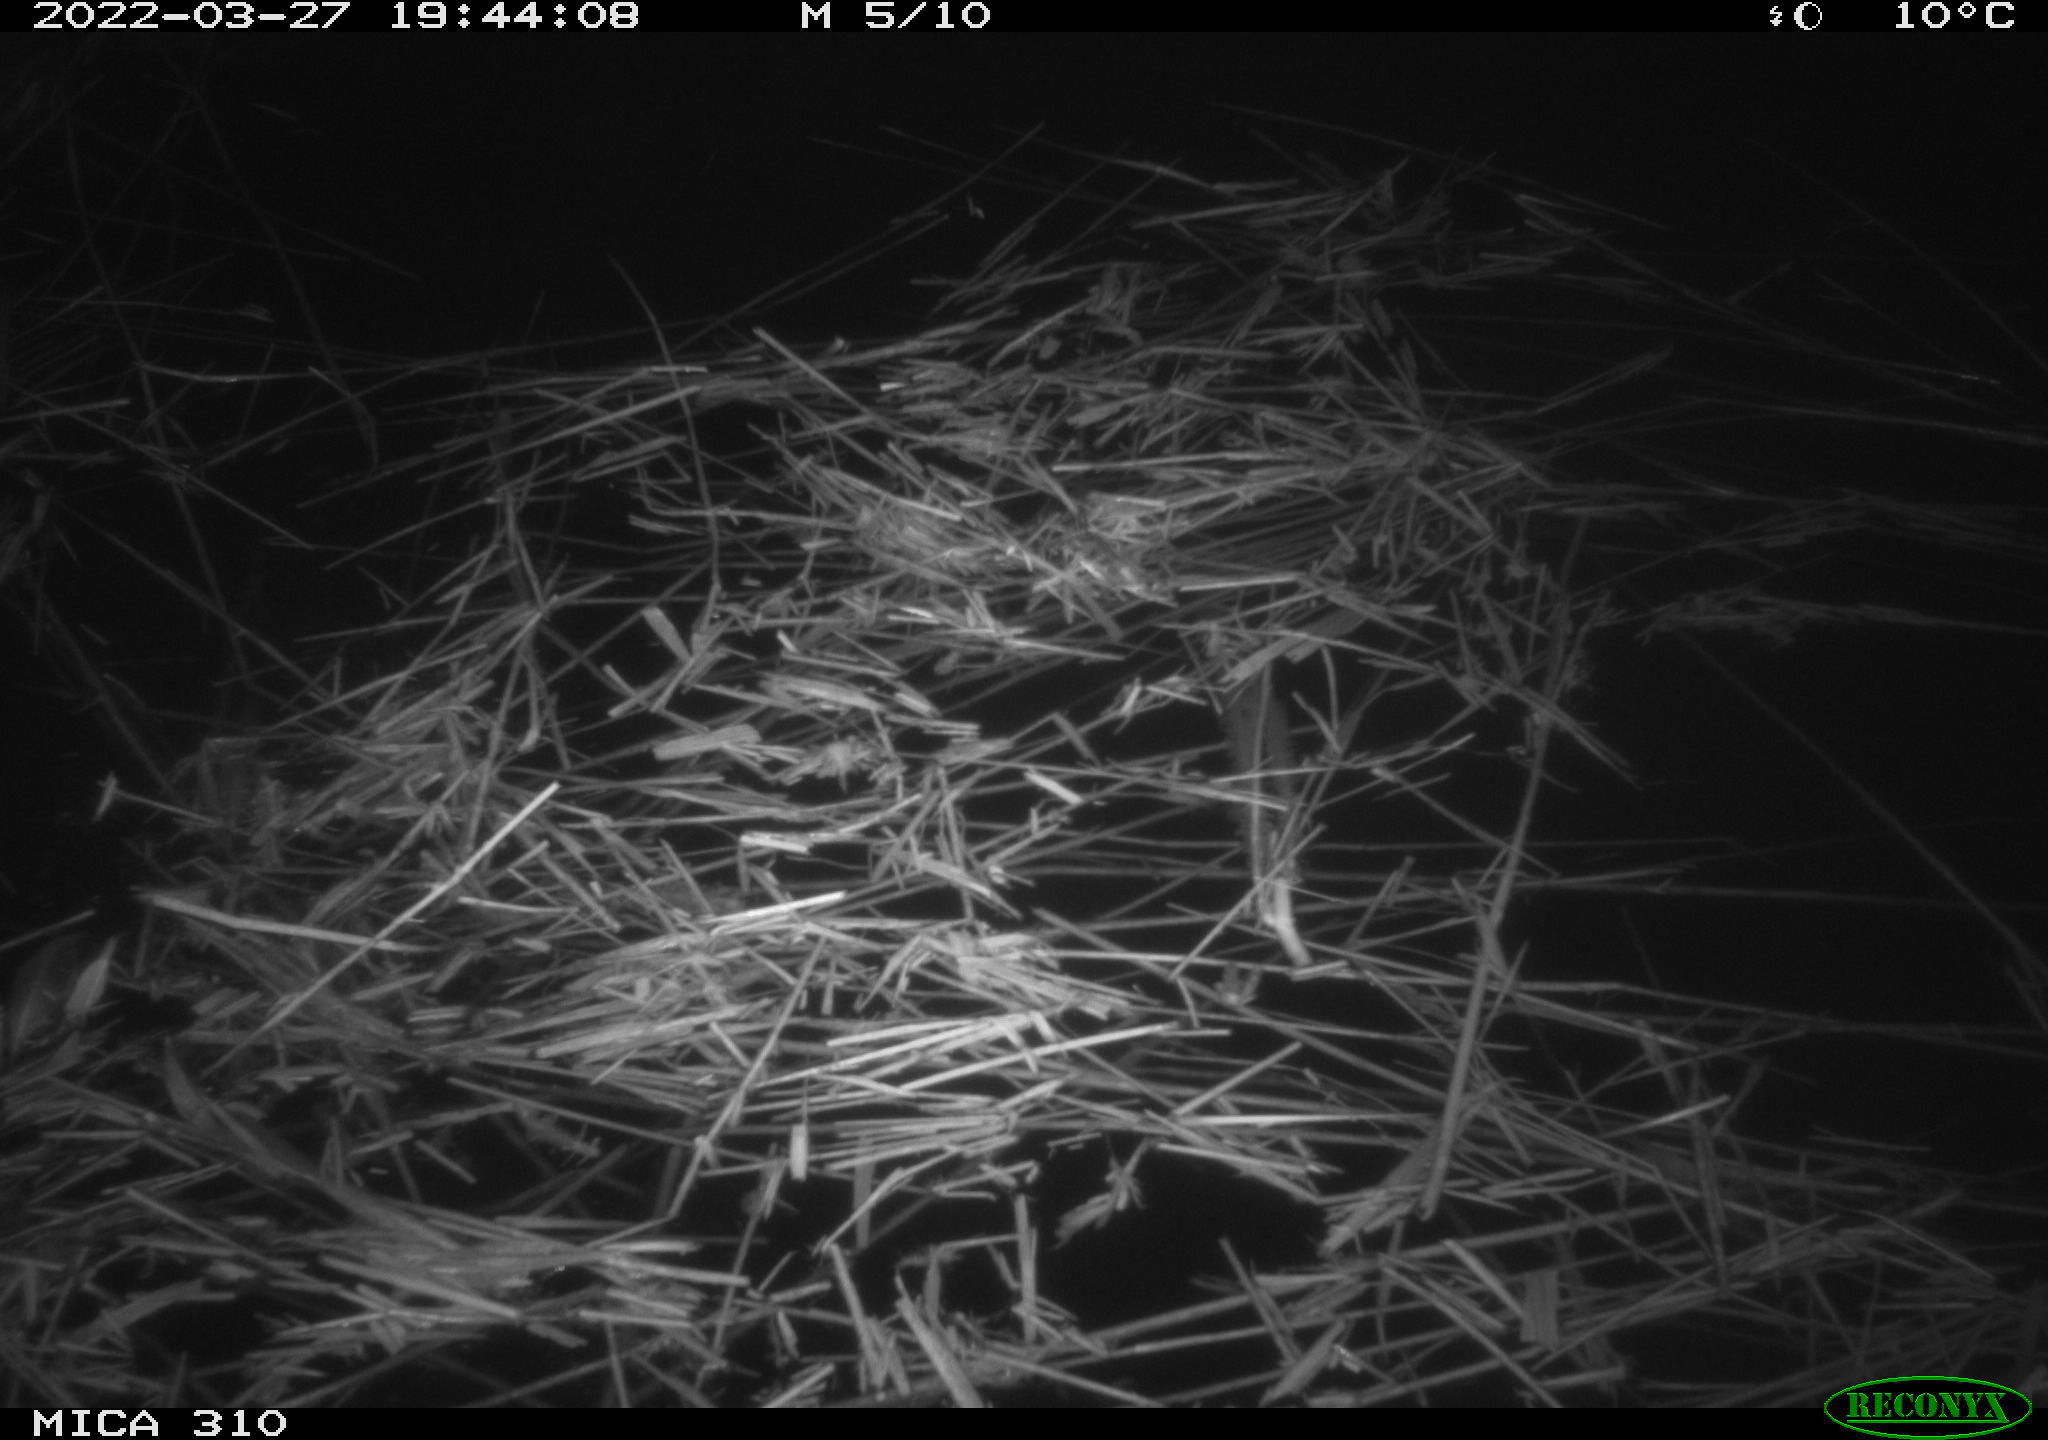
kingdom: Animalia
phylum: Chordata
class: Aves
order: Anseriformes
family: Anatidae
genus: Anas
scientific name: Anas platyrhynchos
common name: Mallard
